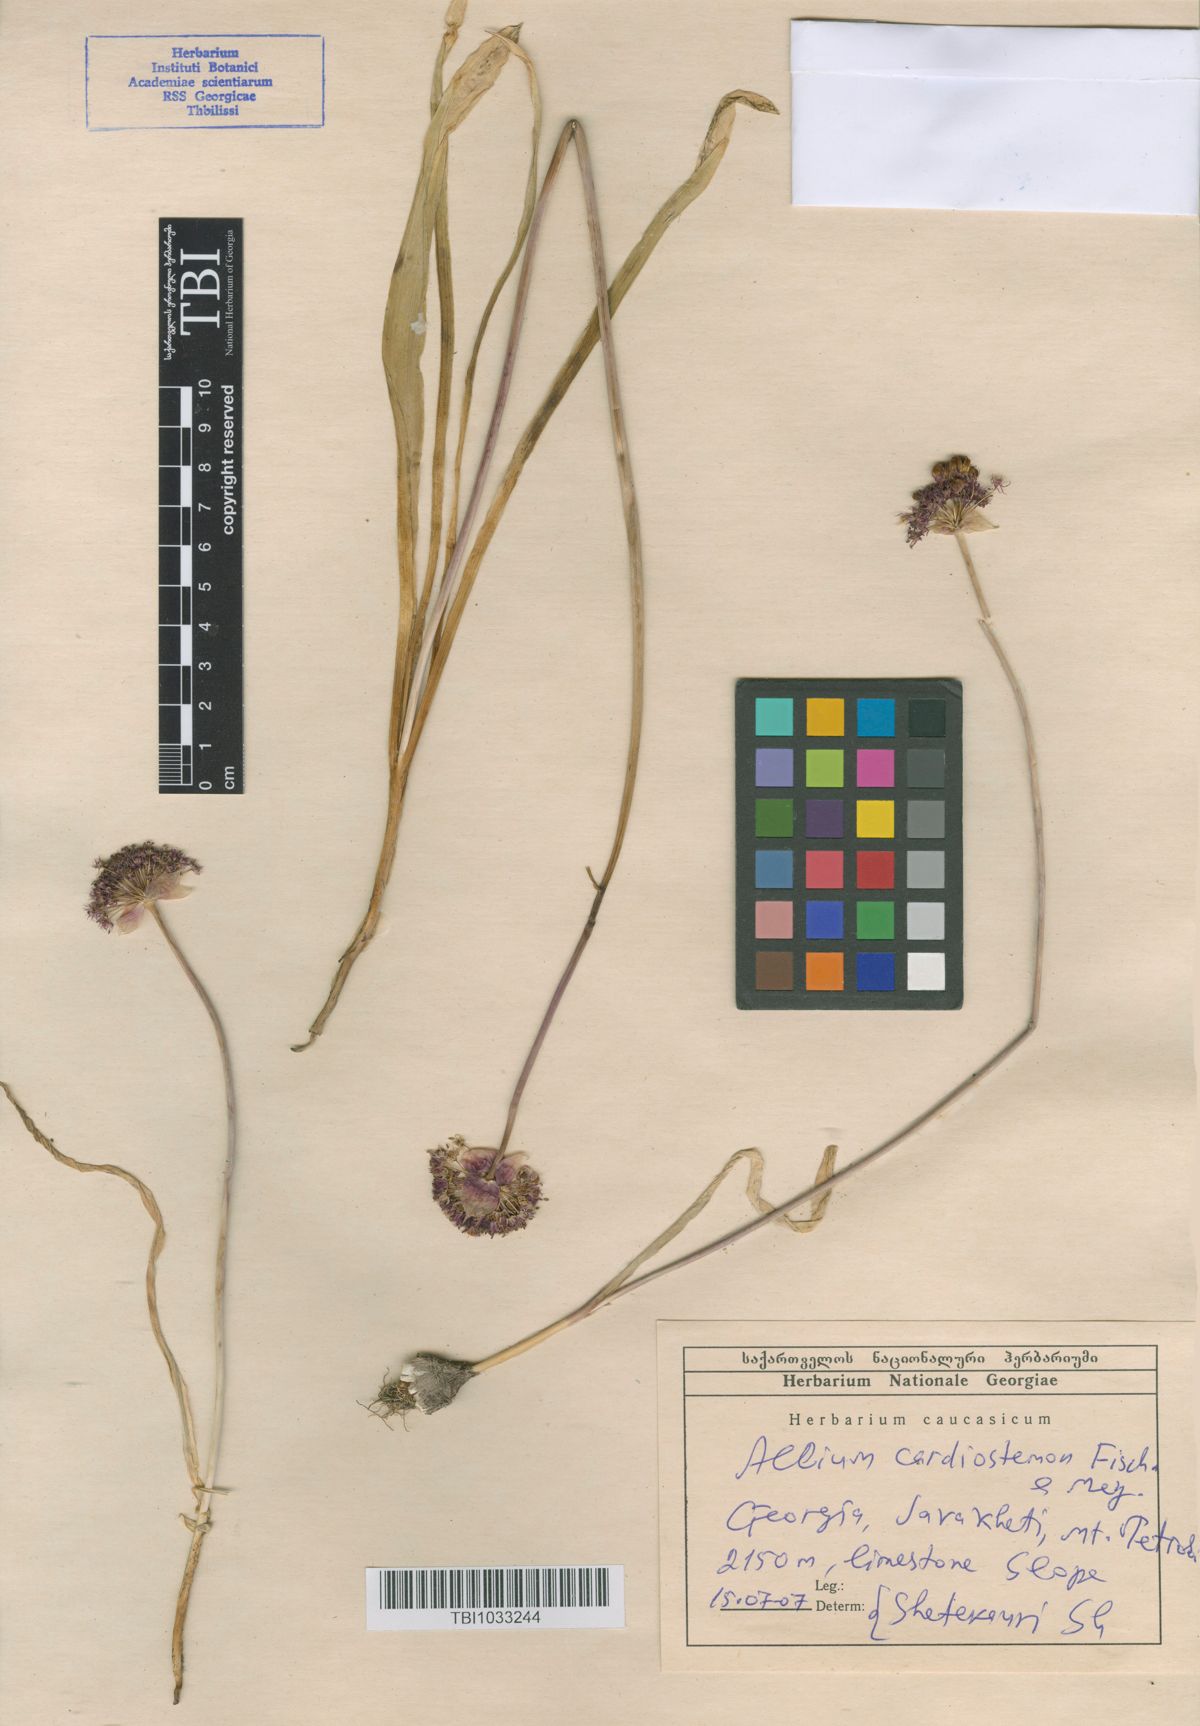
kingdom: Plantae
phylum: Tracheophyta
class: Liliopsida
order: Asparagales
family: Amaryllidaceae
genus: Allium
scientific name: Allium cardiostemon
